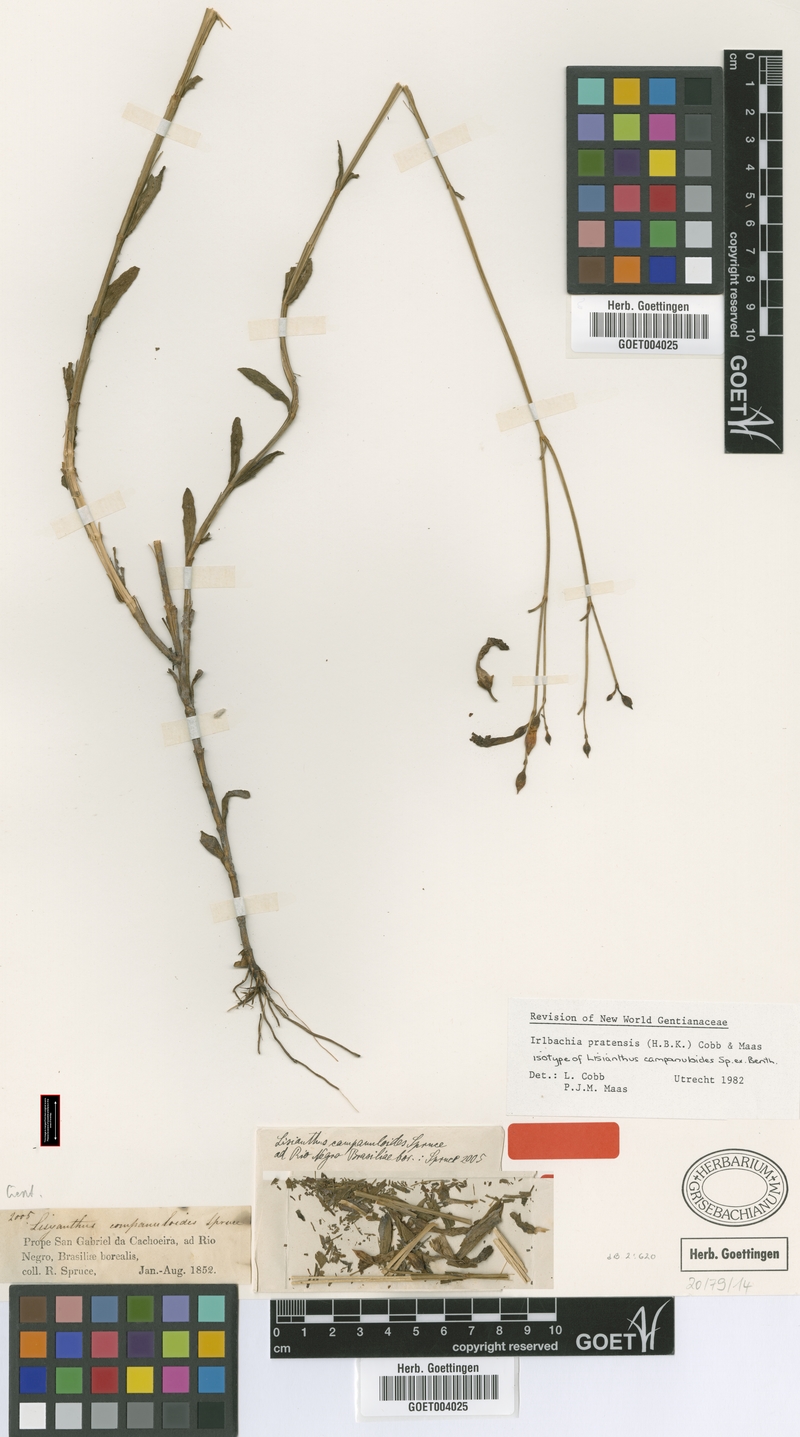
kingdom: Plantae
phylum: Tracheophyta
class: Magnoliopsida
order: Gentianales
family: Gentianaceae
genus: Irlbachia
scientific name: Irlbachia poeppigii
